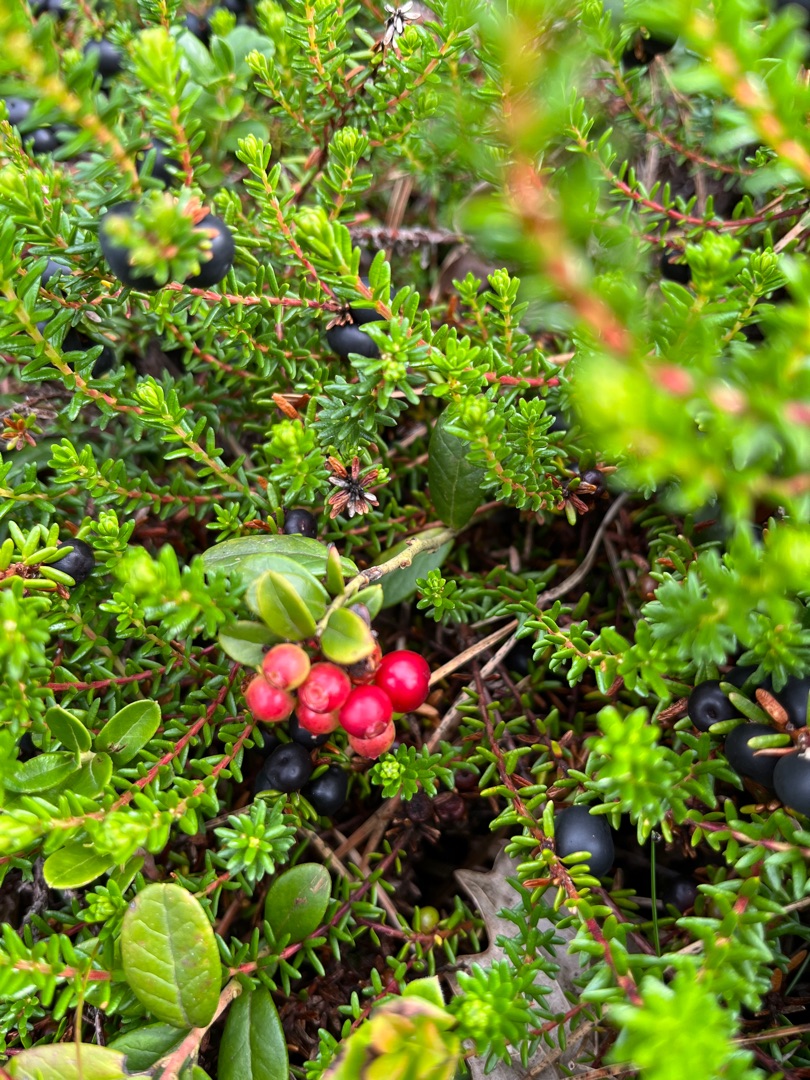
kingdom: Plantae
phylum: Tracheophyta
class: Magnoliopsida
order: Ericales
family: Ericaceae
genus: Vaccinium
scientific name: Vaccinium vitis-idaea
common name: Tyttebær
